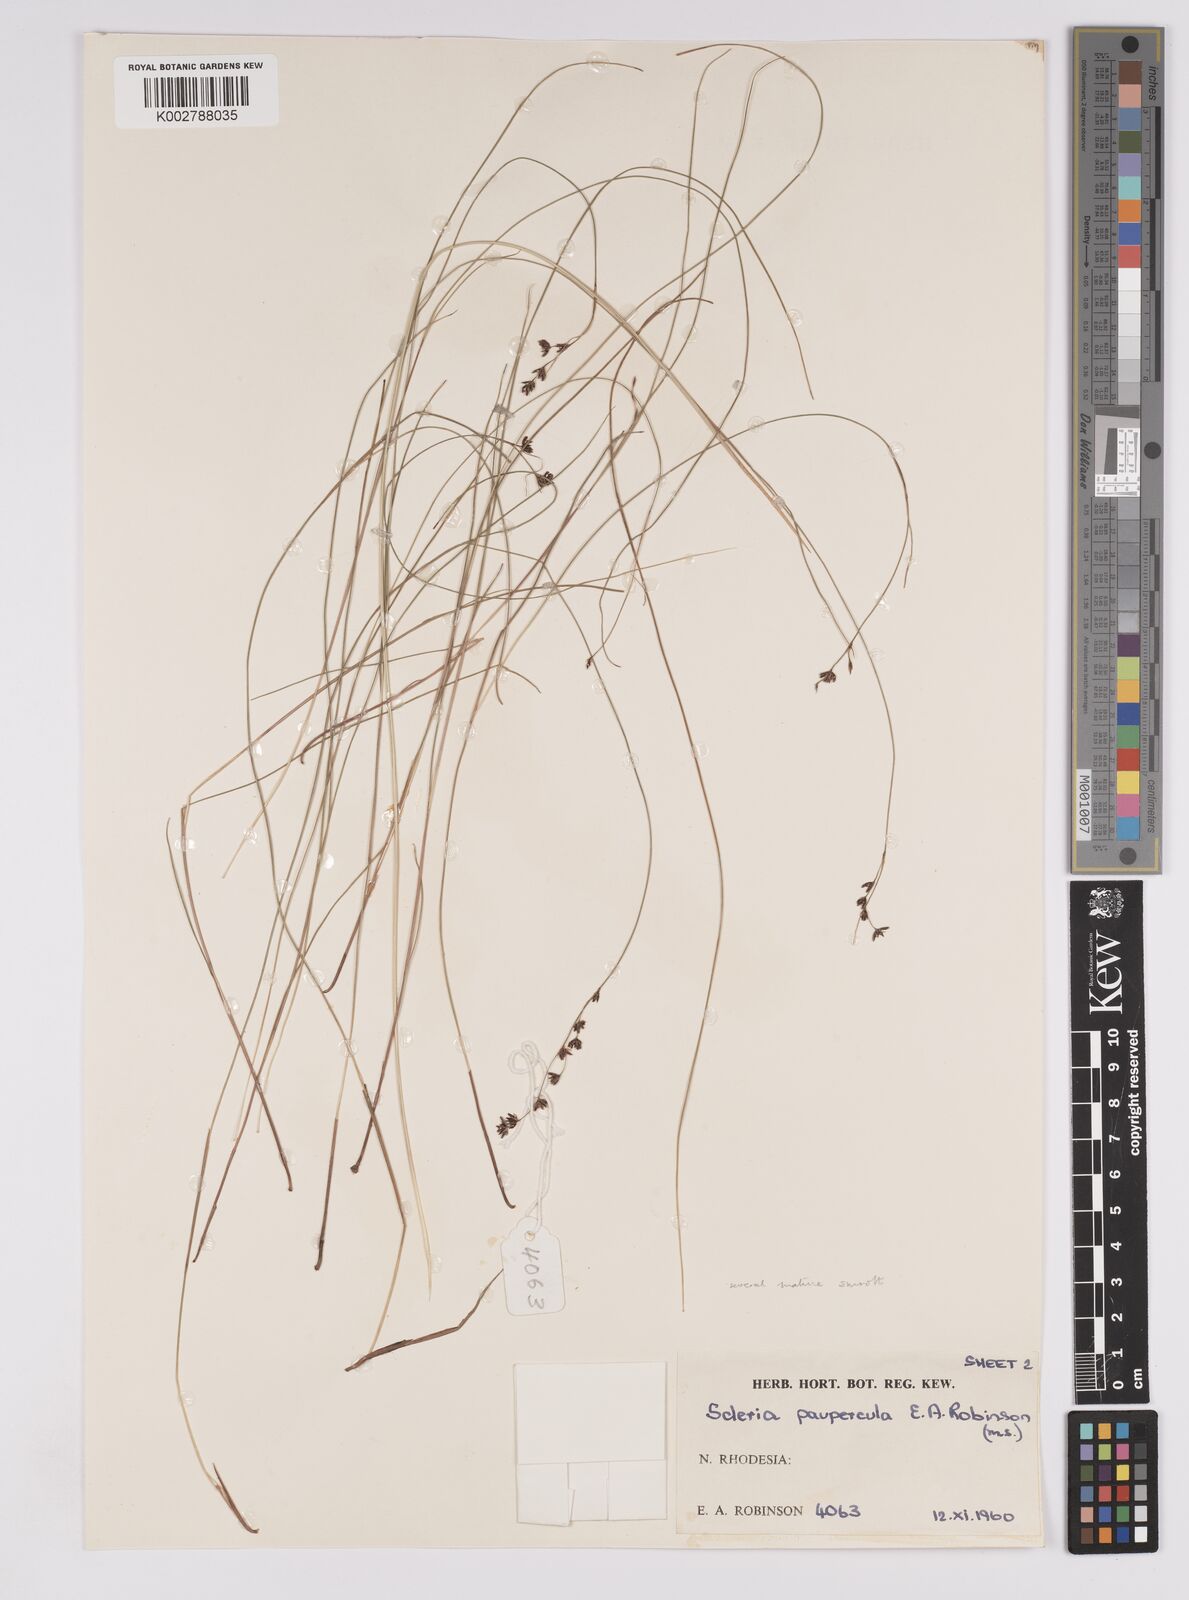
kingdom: Plantae
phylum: Tracheophyta
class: Liliopsida
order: Poales
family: Cyperaceae
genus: Scleria
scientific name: Scleria paupercula
